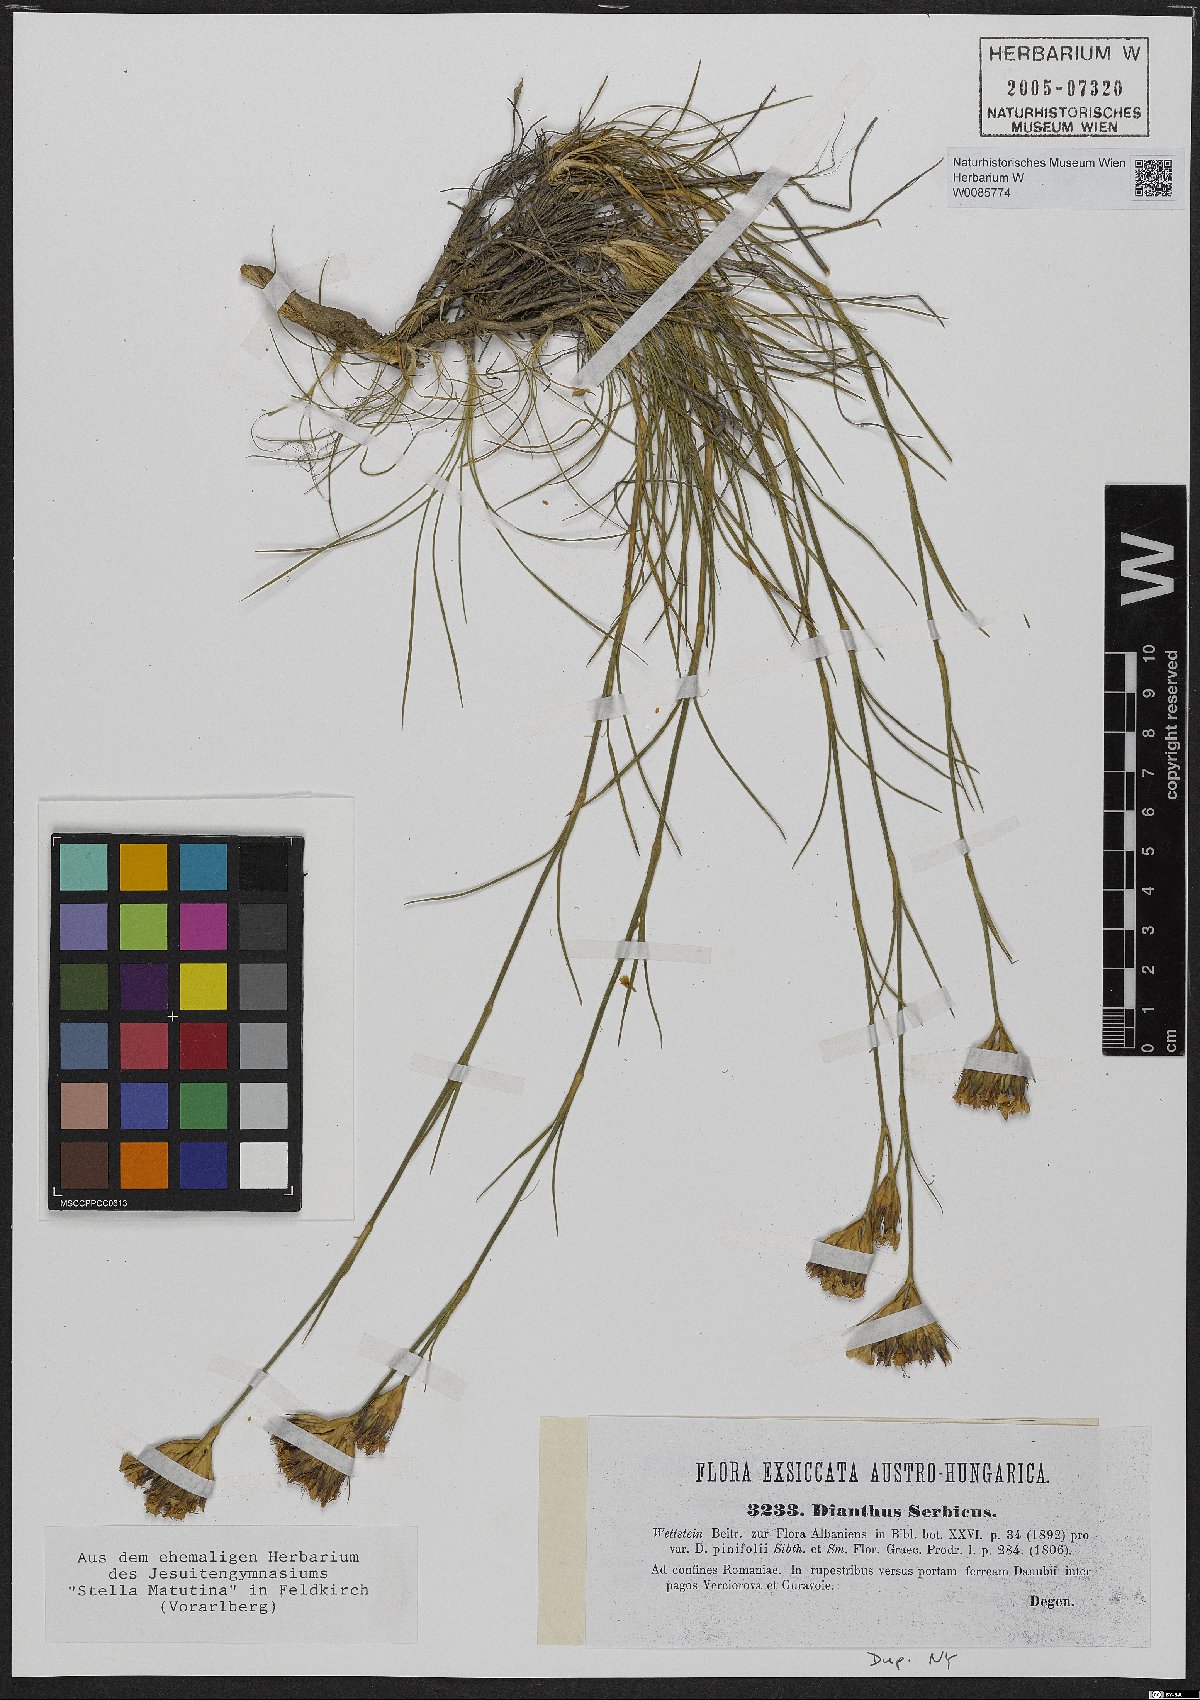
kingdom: Plantae
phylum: Tracheophyta
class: Magnoliopsida
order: Caryophyllales
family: Caryophyllaceae
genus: Dianthus
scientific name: Dianthus pinifolius
